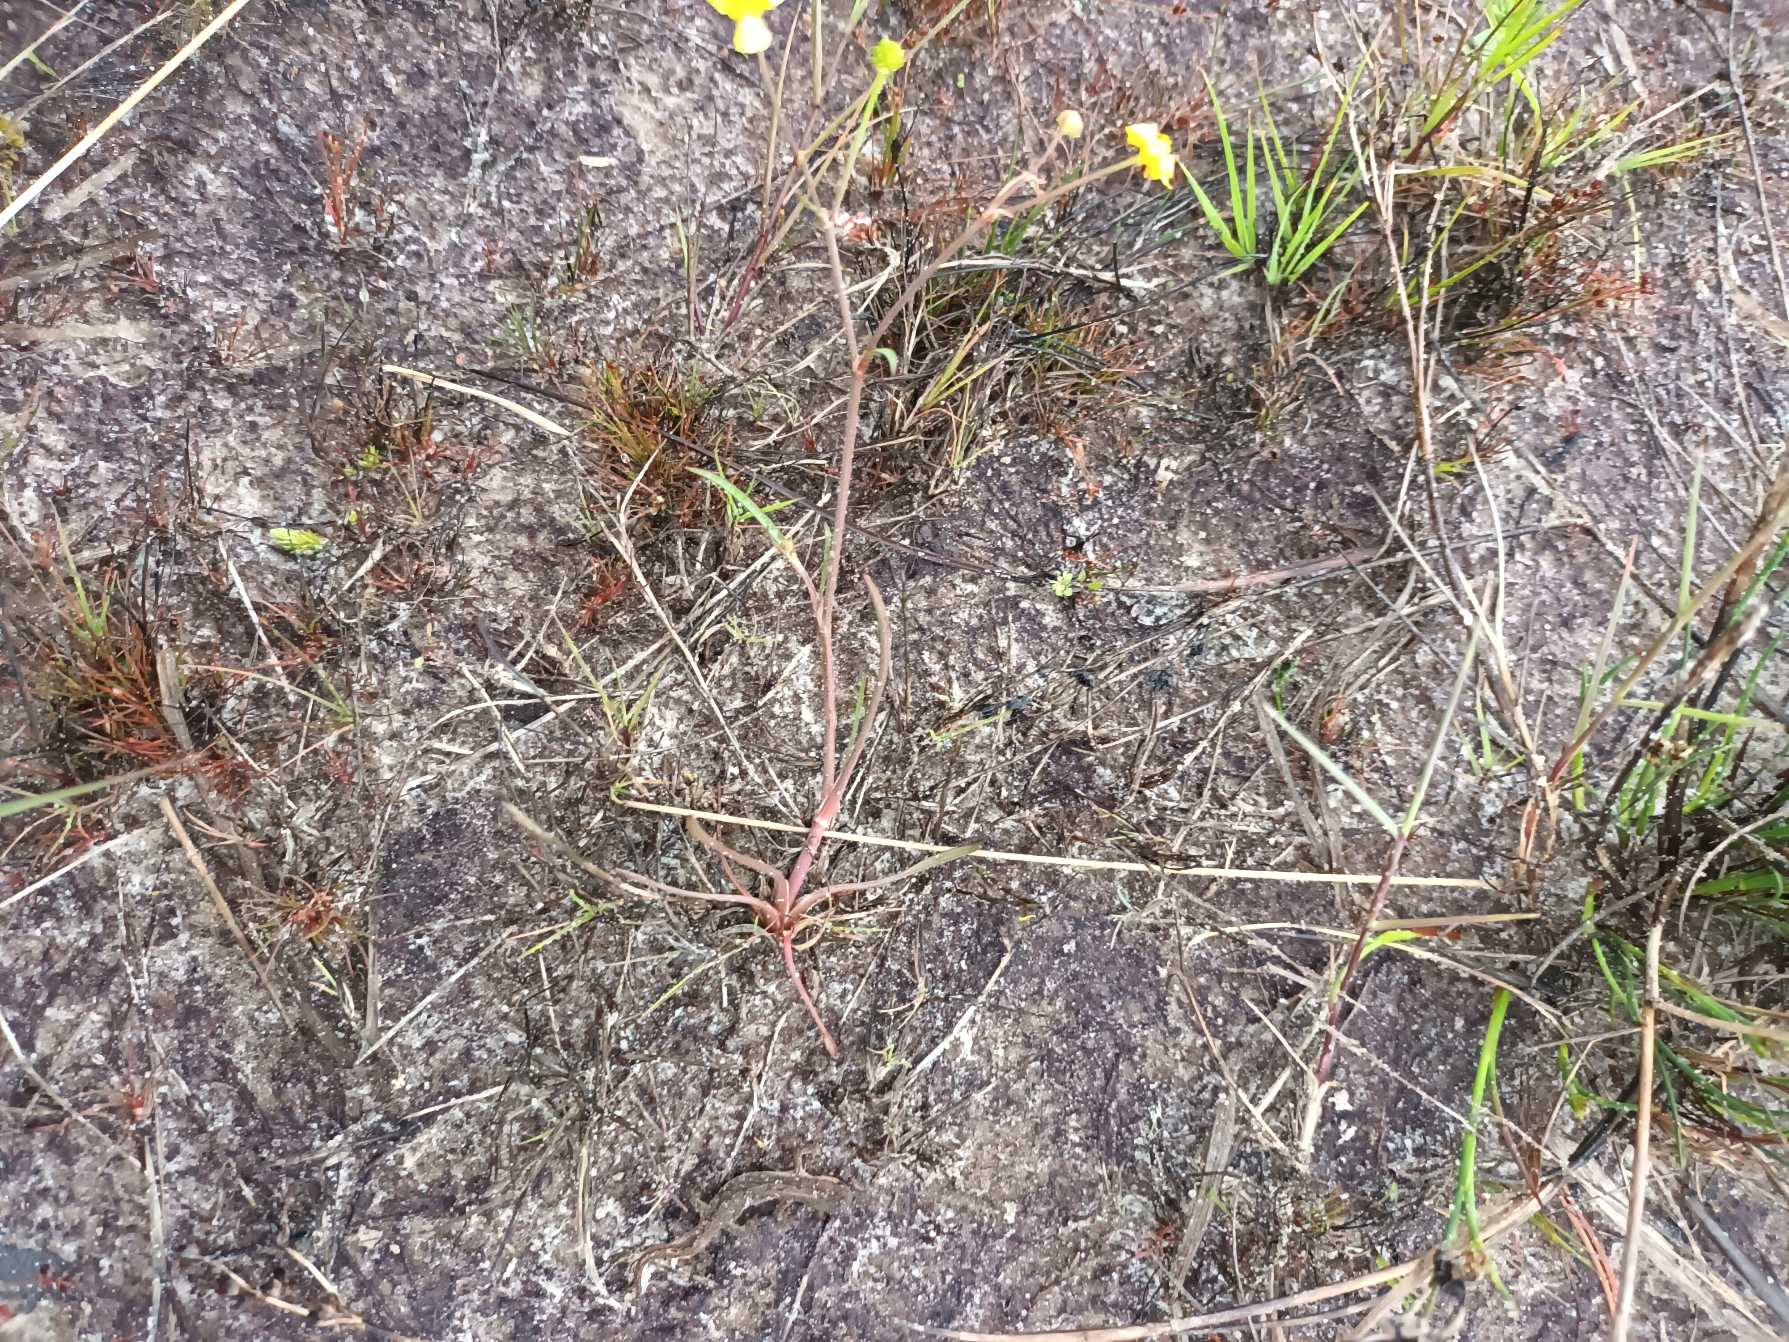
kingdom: Plantae
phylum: Tracheophyta
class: Magnoliopsida
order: Ranunculales
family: Ranunculaceae
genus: Ranunculus
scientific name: Ranunculus flammula
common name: Kær-ranunkel
